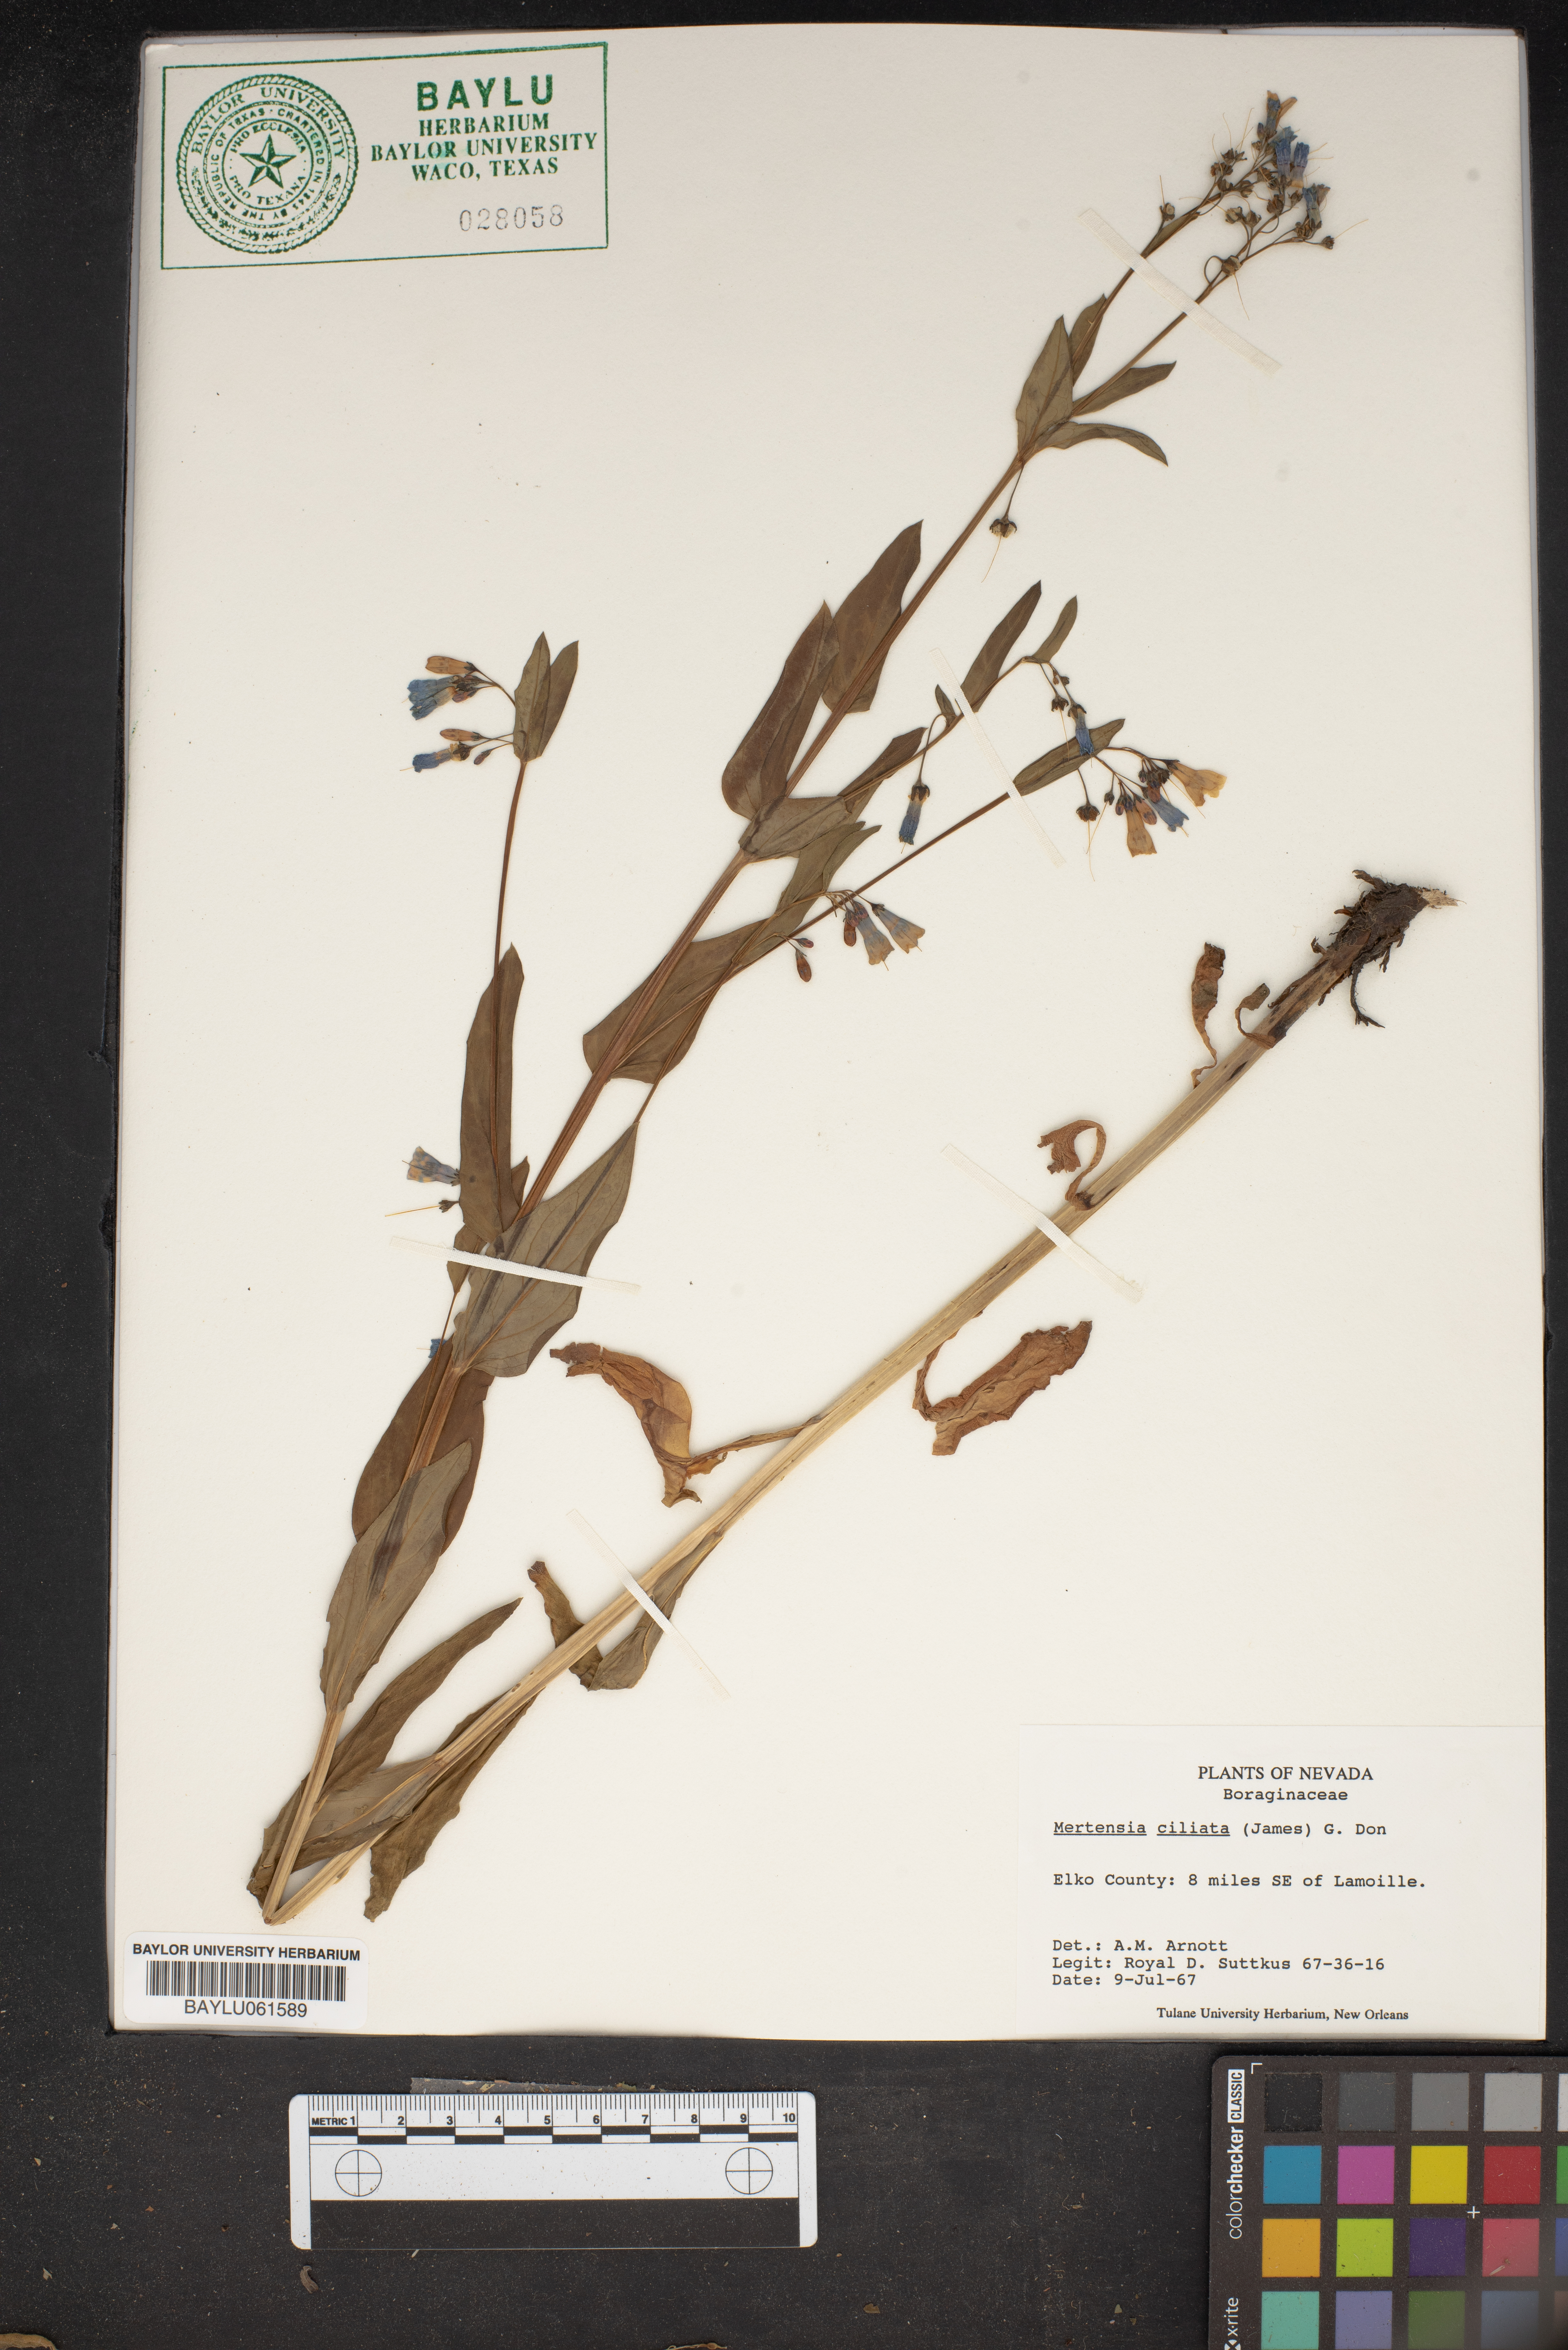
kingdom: Plantae
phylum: Tracheophyta
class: Magnoliopsida
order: Boraginales
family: Boraginaceae
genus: Mertensia
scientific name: Mertensia ciliata
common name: Tall chiming-bells
